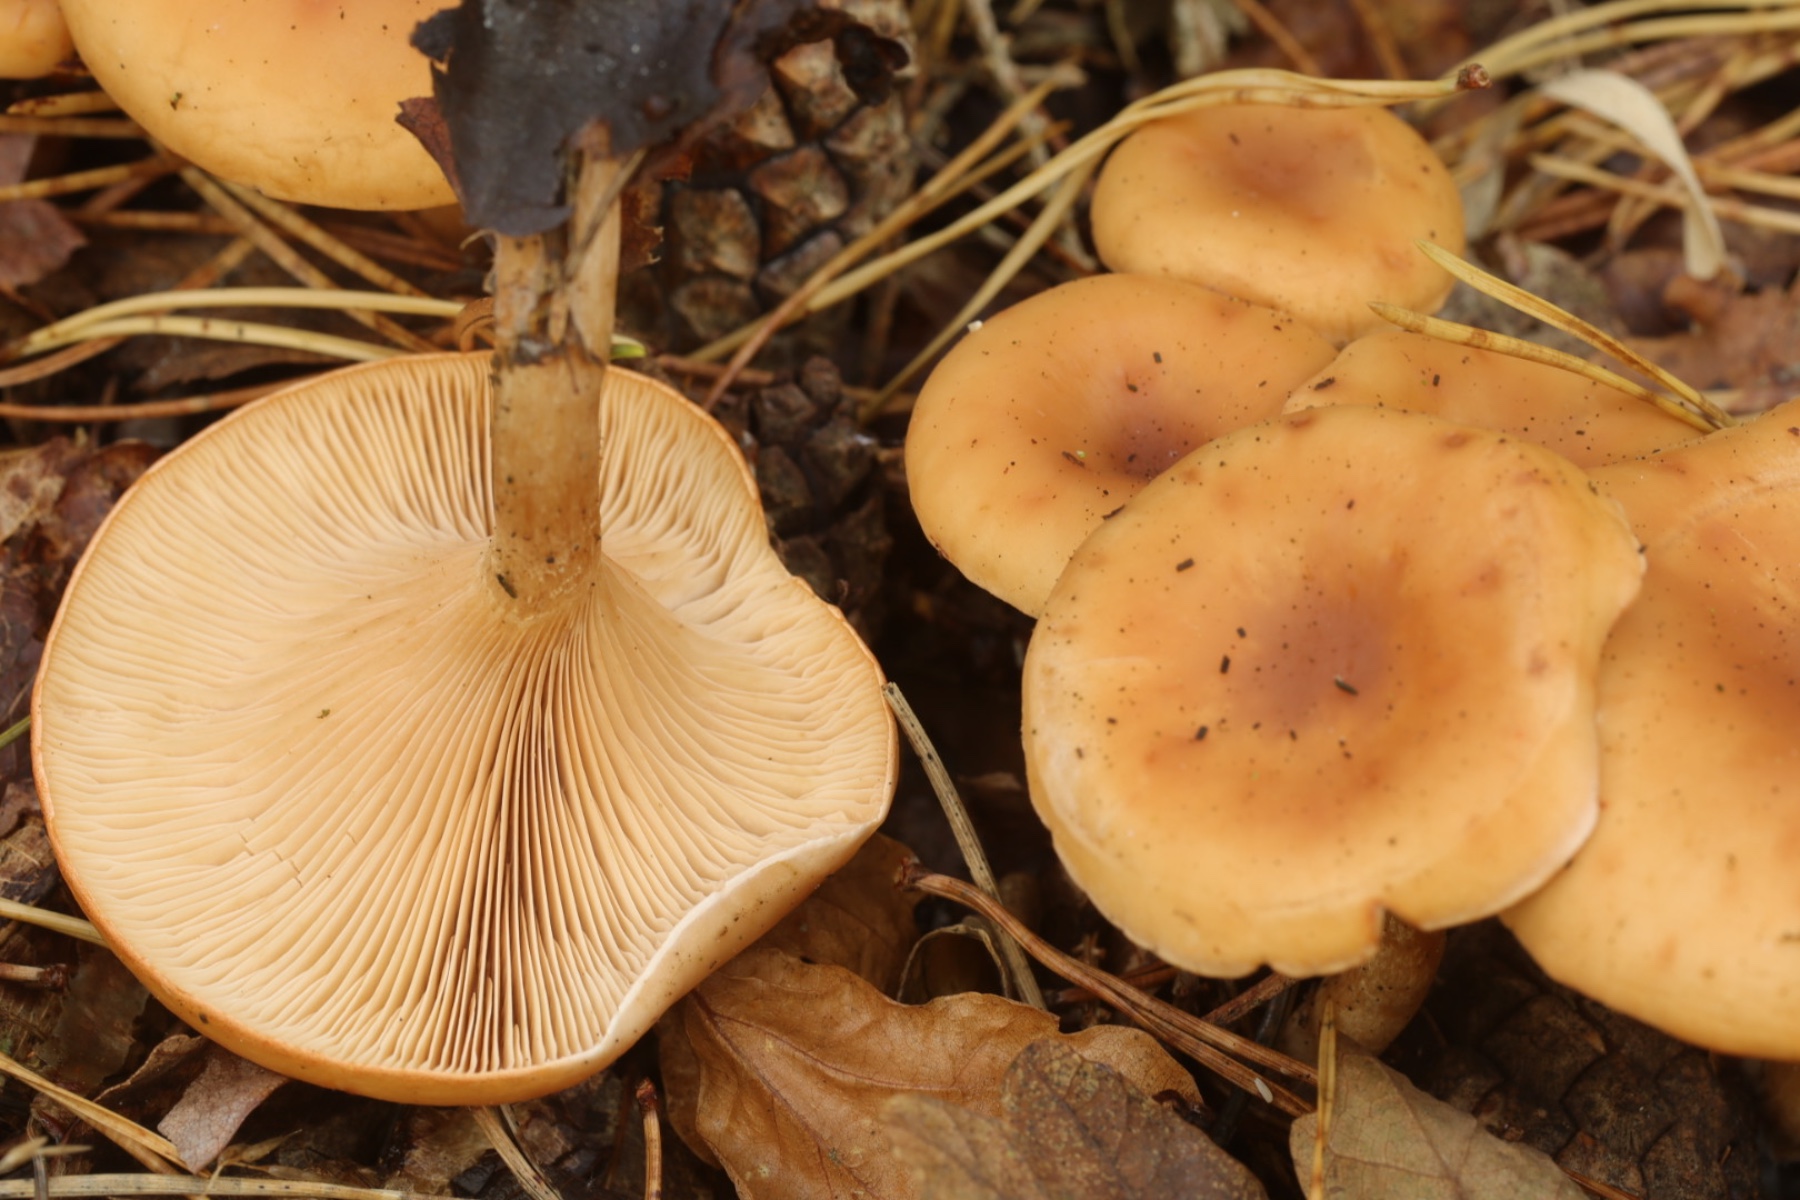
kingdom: Fungi
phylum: Basidiomycota
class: Agaricomycetes
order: Agaricales
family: Tricholomataceae
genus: Paralepista
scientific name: Paralepista flaccida
